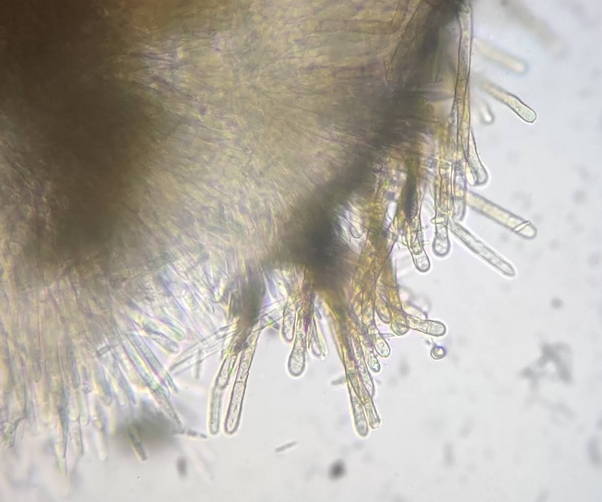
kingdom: Fungi
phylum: Ascomycota
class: Leotiomycetes
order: Helotiales
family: Lachnaceae
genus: Brunnipila
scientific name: Brunnipila palearum
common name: brunhåret frynseskive
